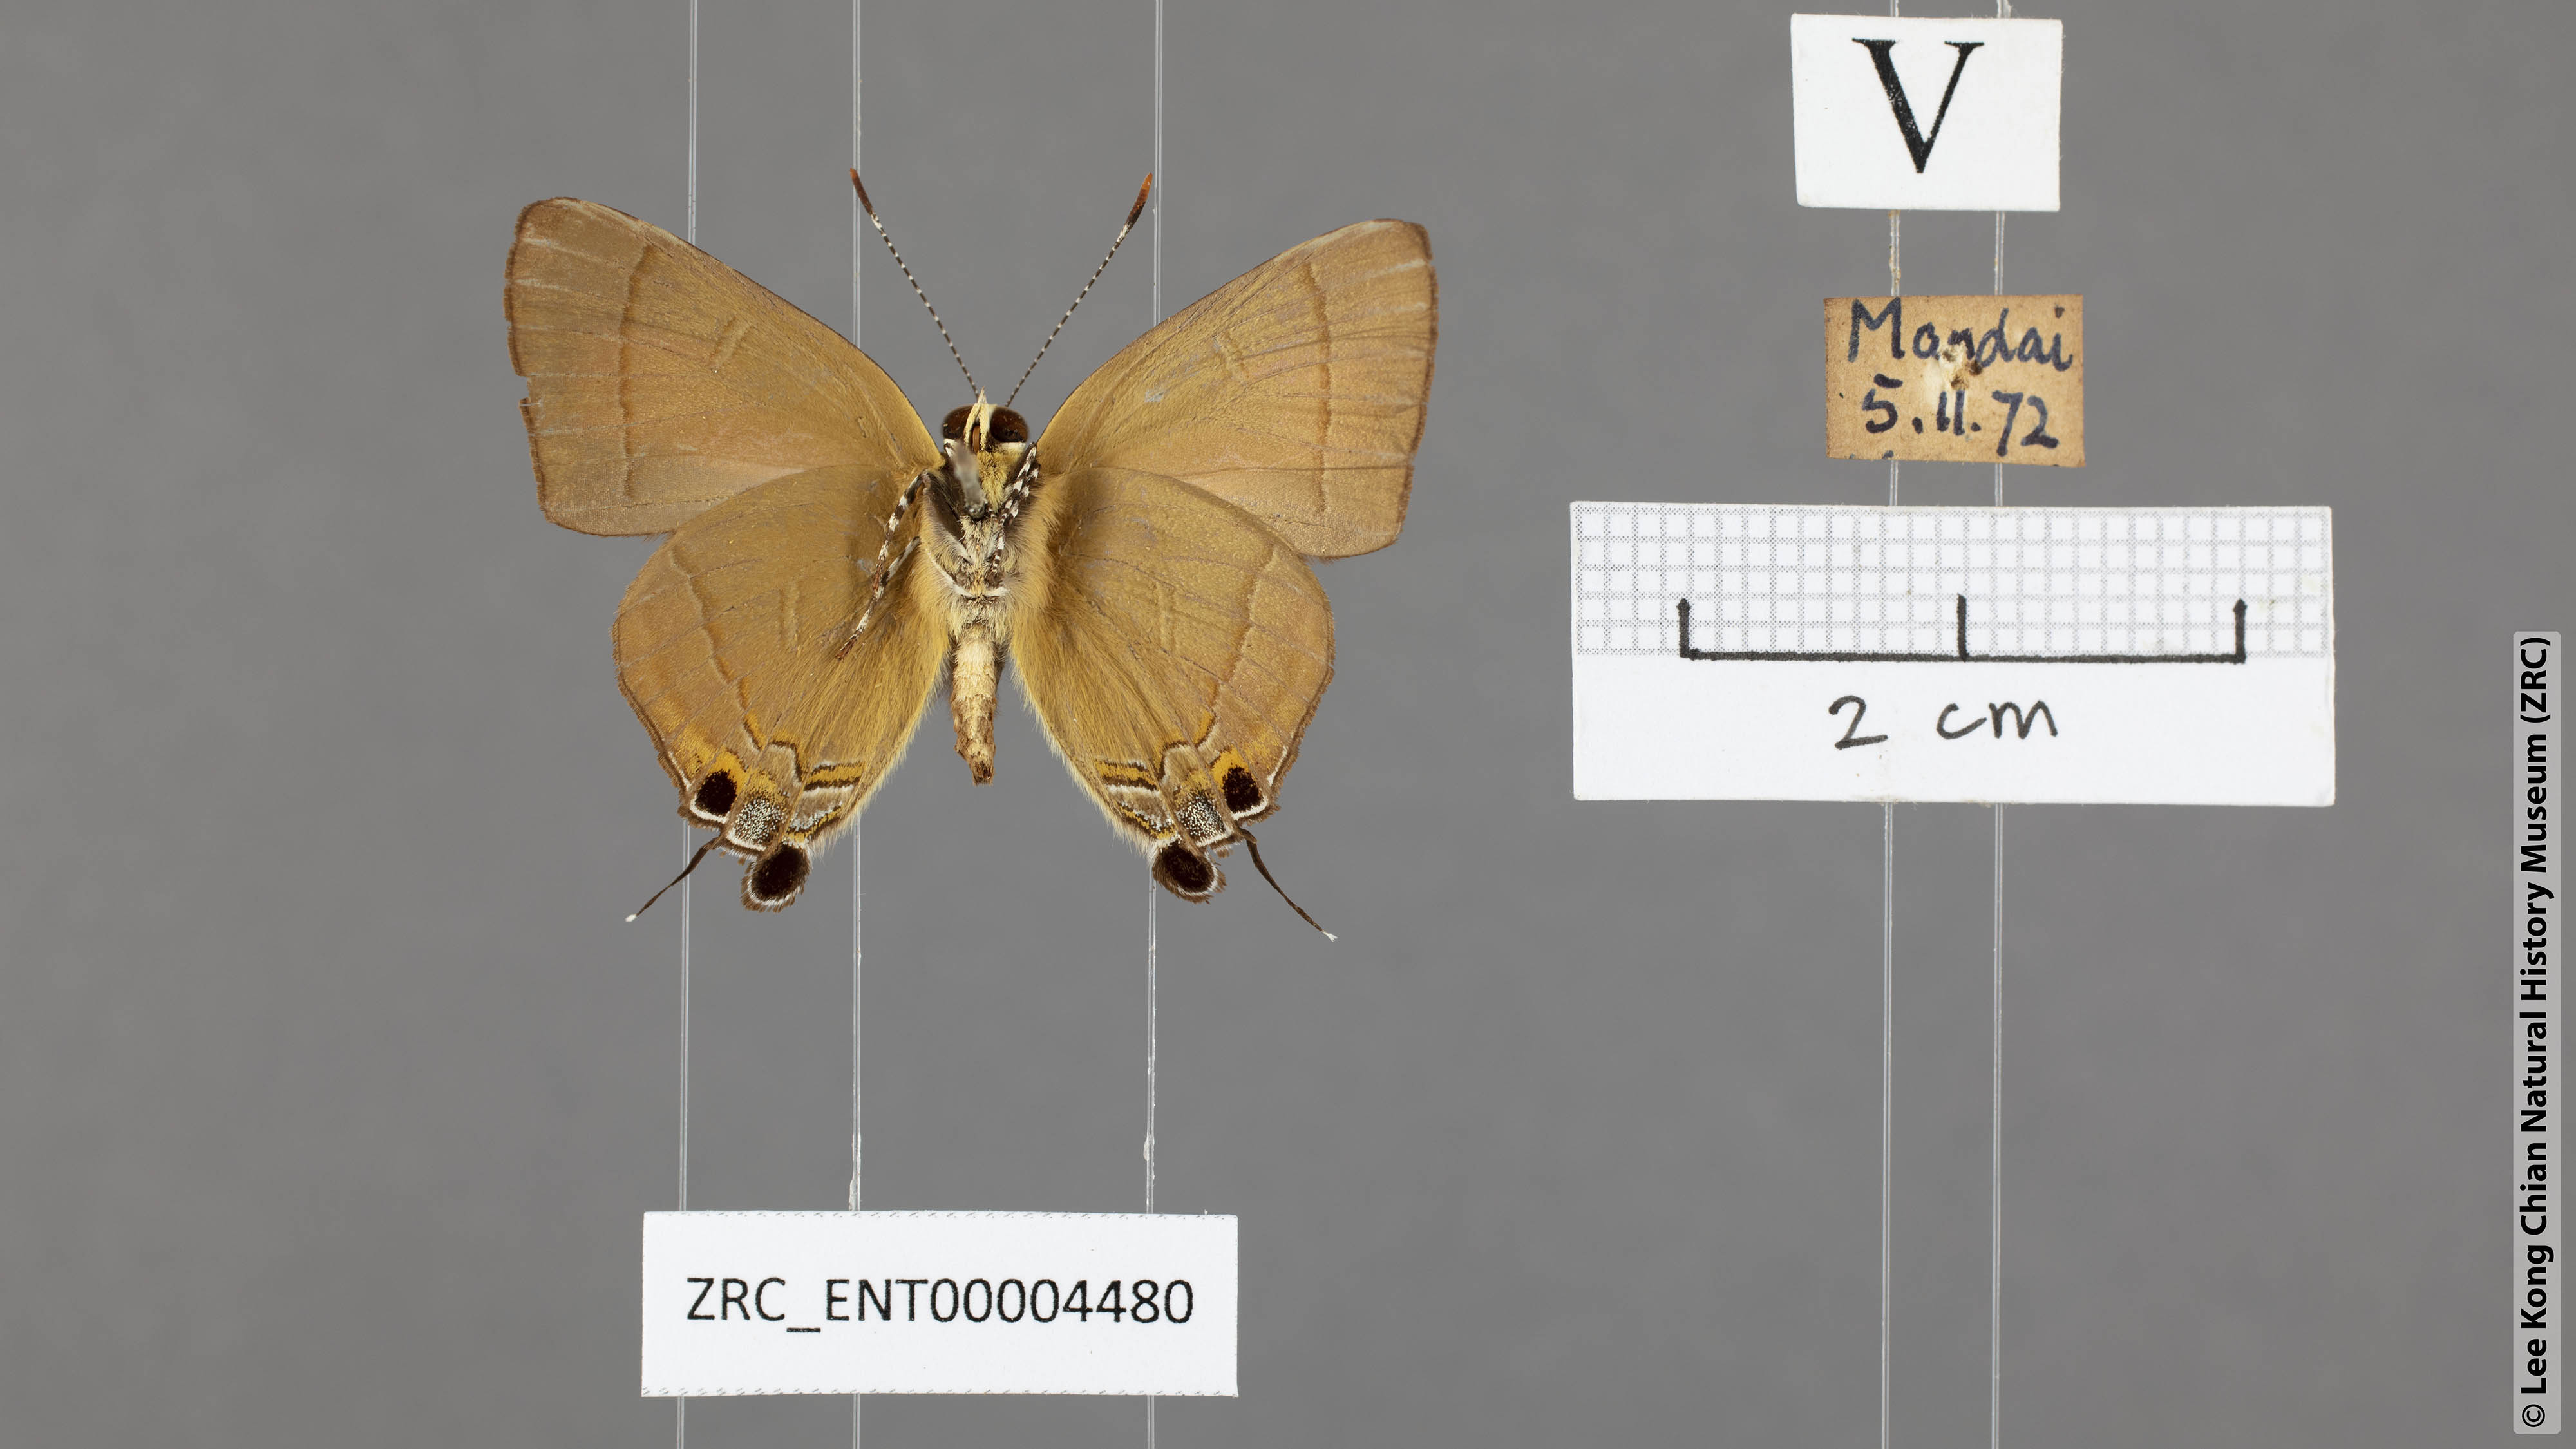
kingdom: Animalia
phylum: Arthropoda
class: Insecta
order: Lepidoptera
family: Lycaenidae
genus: Rapala
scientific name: Rapala dieneces
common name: Scarlet flash
